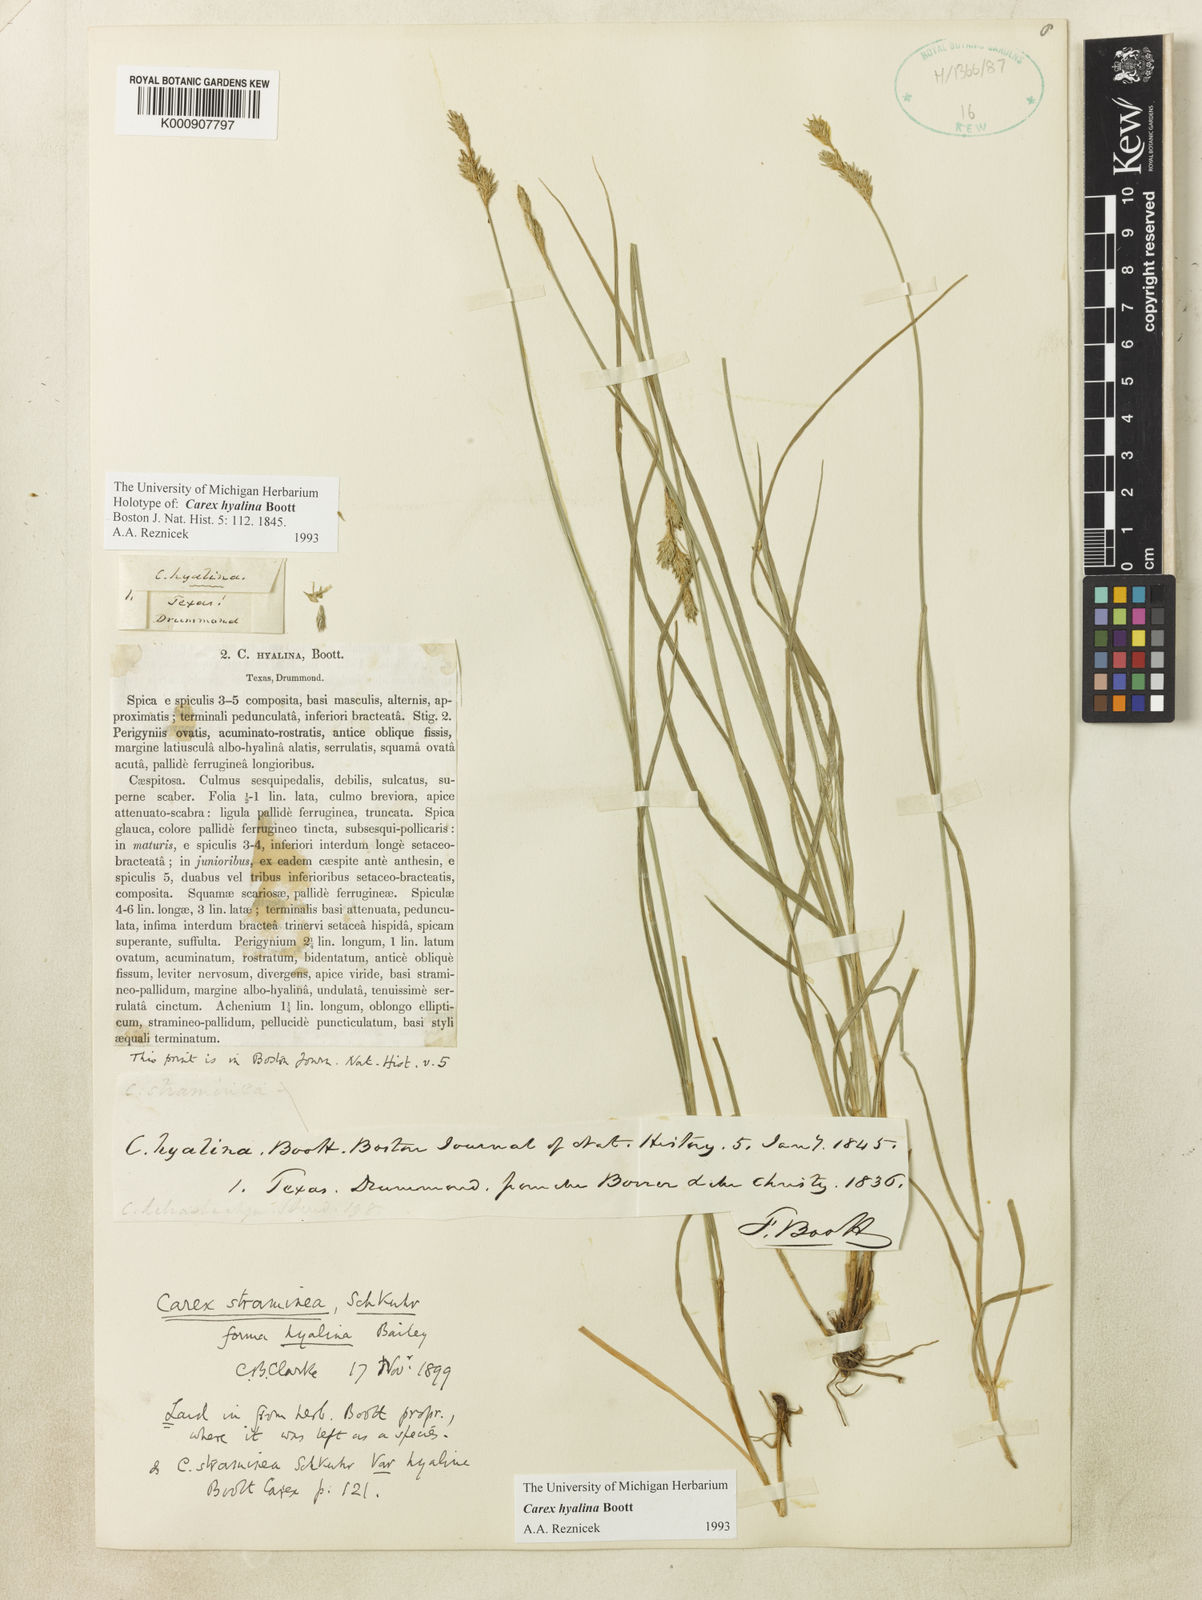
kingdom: Plantae
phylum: Tracheophyta
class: Liliopsida
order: Poales
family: Cyperaceae
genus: Carex
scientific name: Carex hyalina
